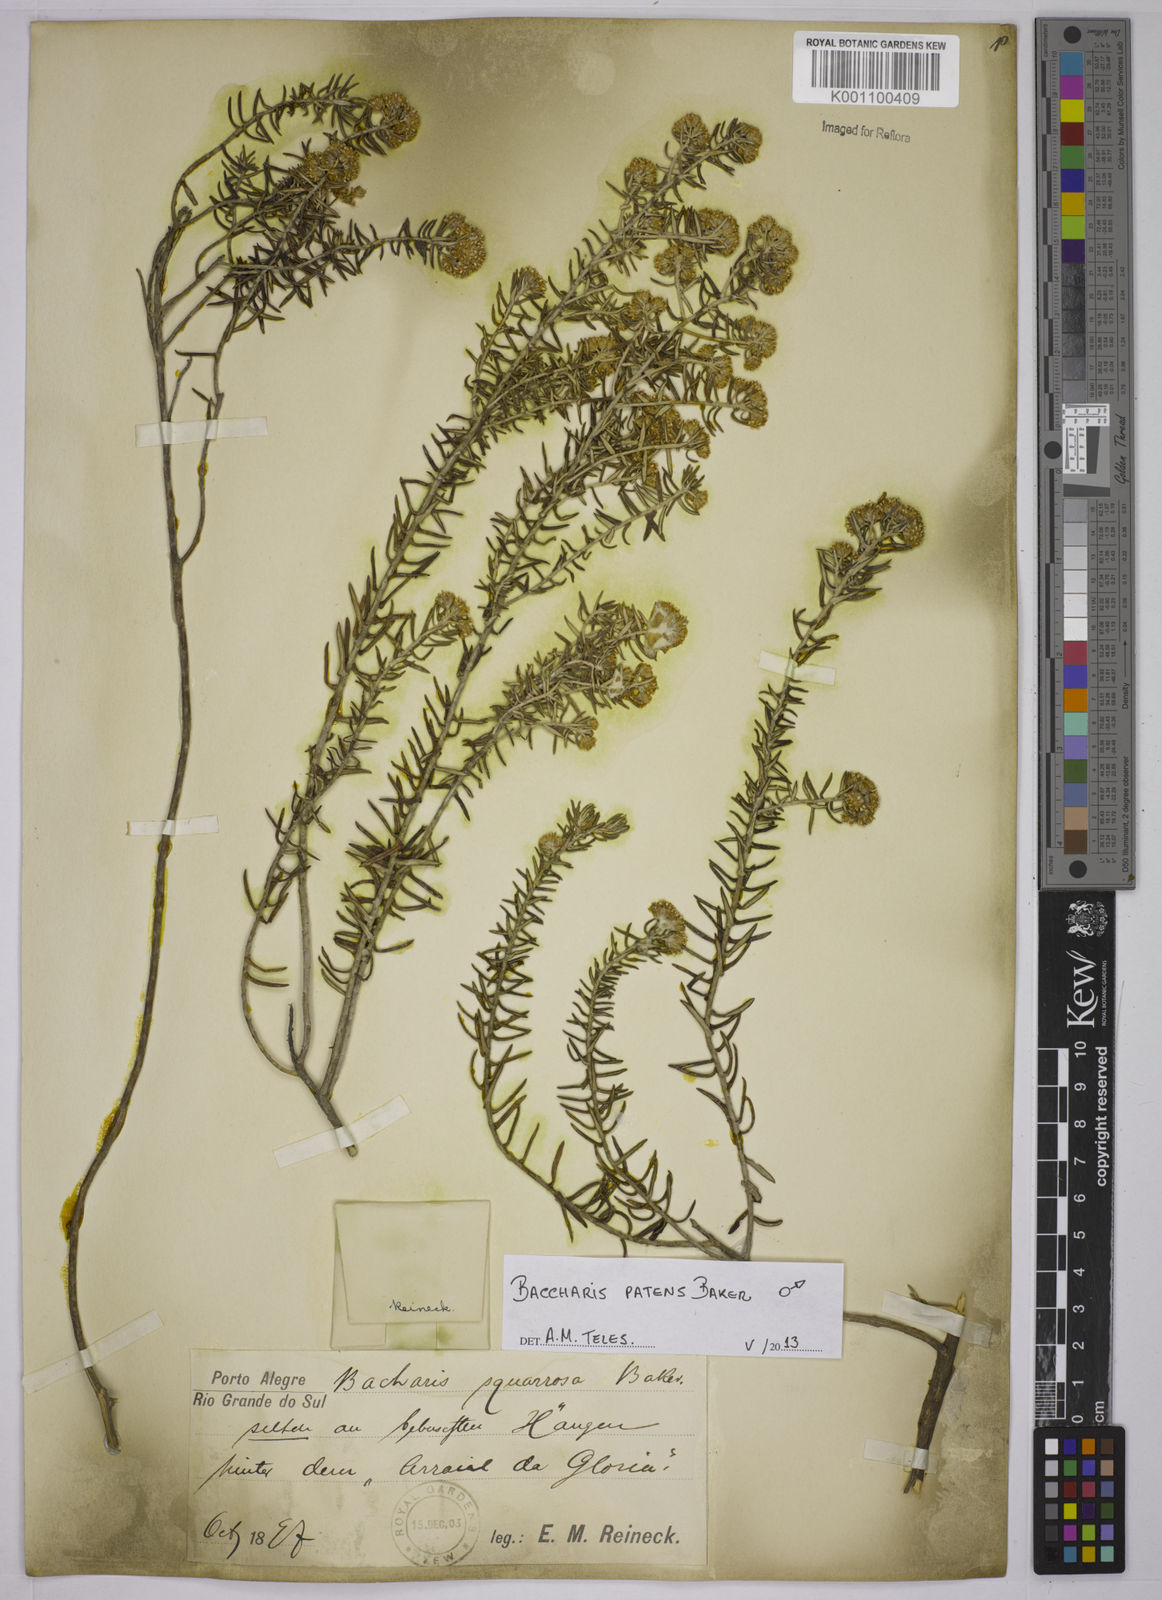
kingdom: Plantae
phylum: Tracheophyta
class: Magnoliopsida
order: Asterales
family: Asteraceae
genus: Baccharis
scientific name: Baccharis squarrosa
